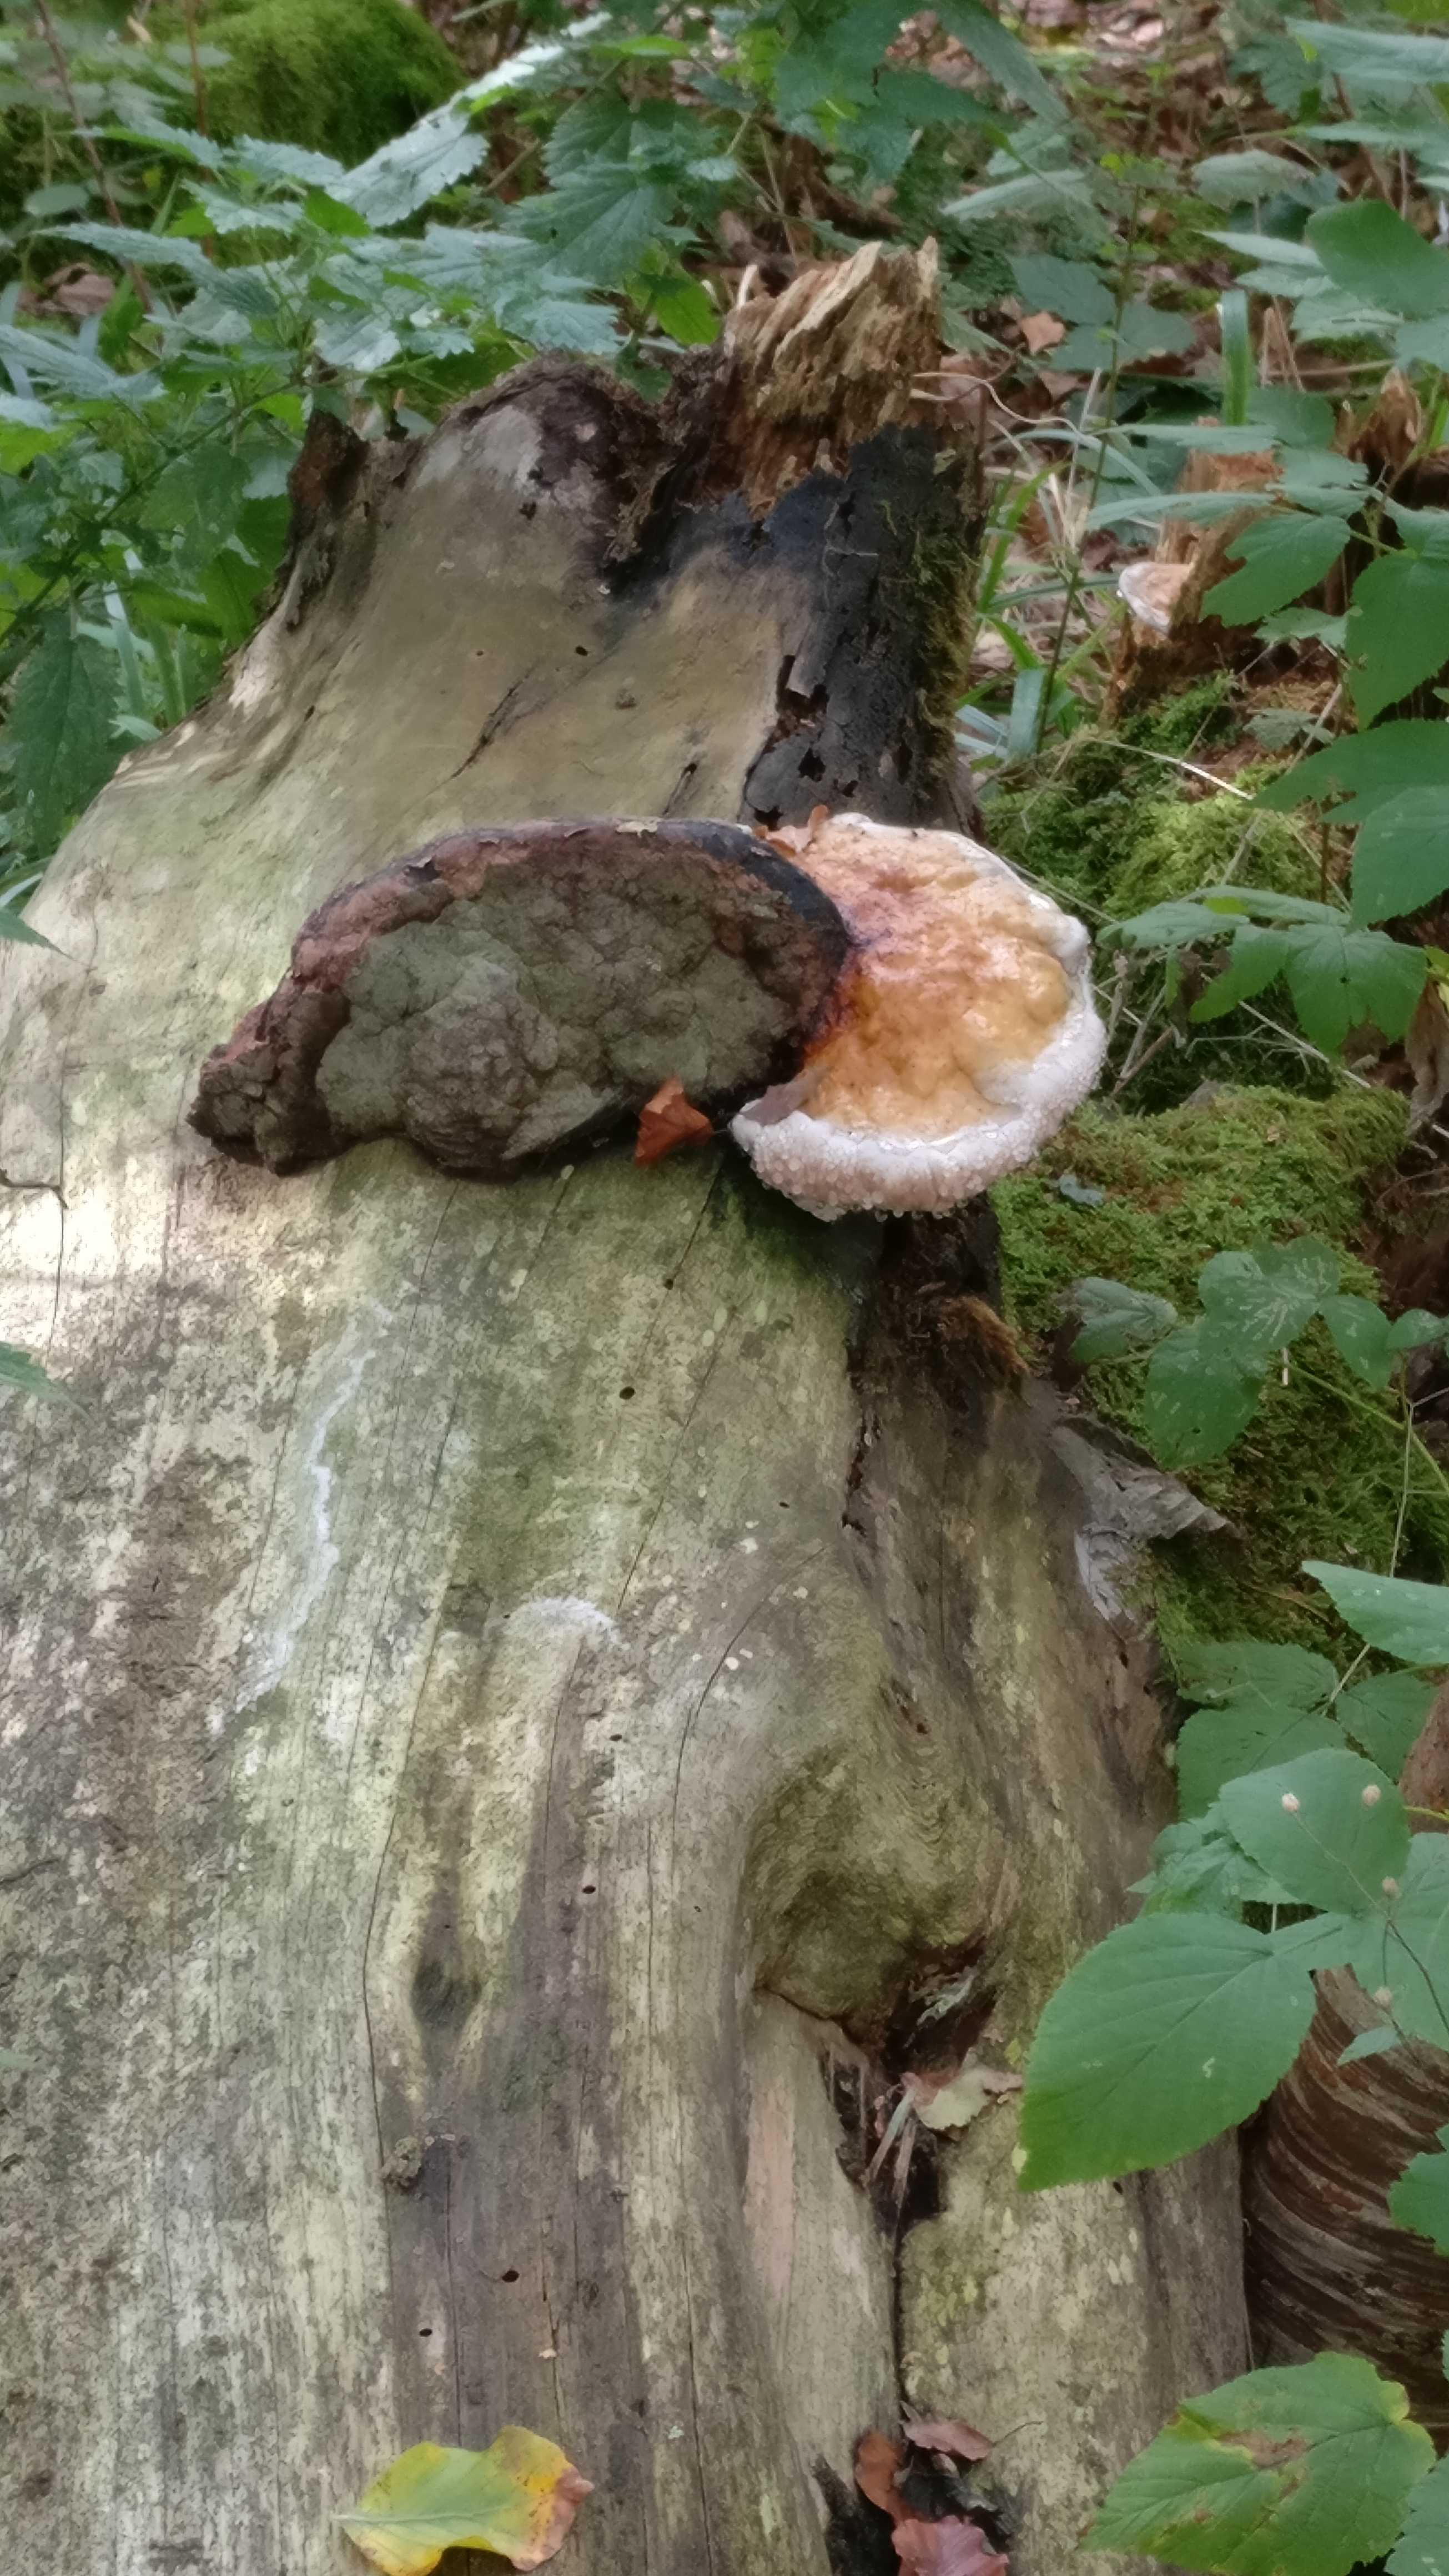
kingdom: Fungi
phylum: Basidiomycota
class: Agaricomycetes
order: Polyporales
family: Fomitopsidaceae
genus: Fomitopsis
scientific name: Fomitopsis pinicola
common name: randbæltet hovporesvamp
